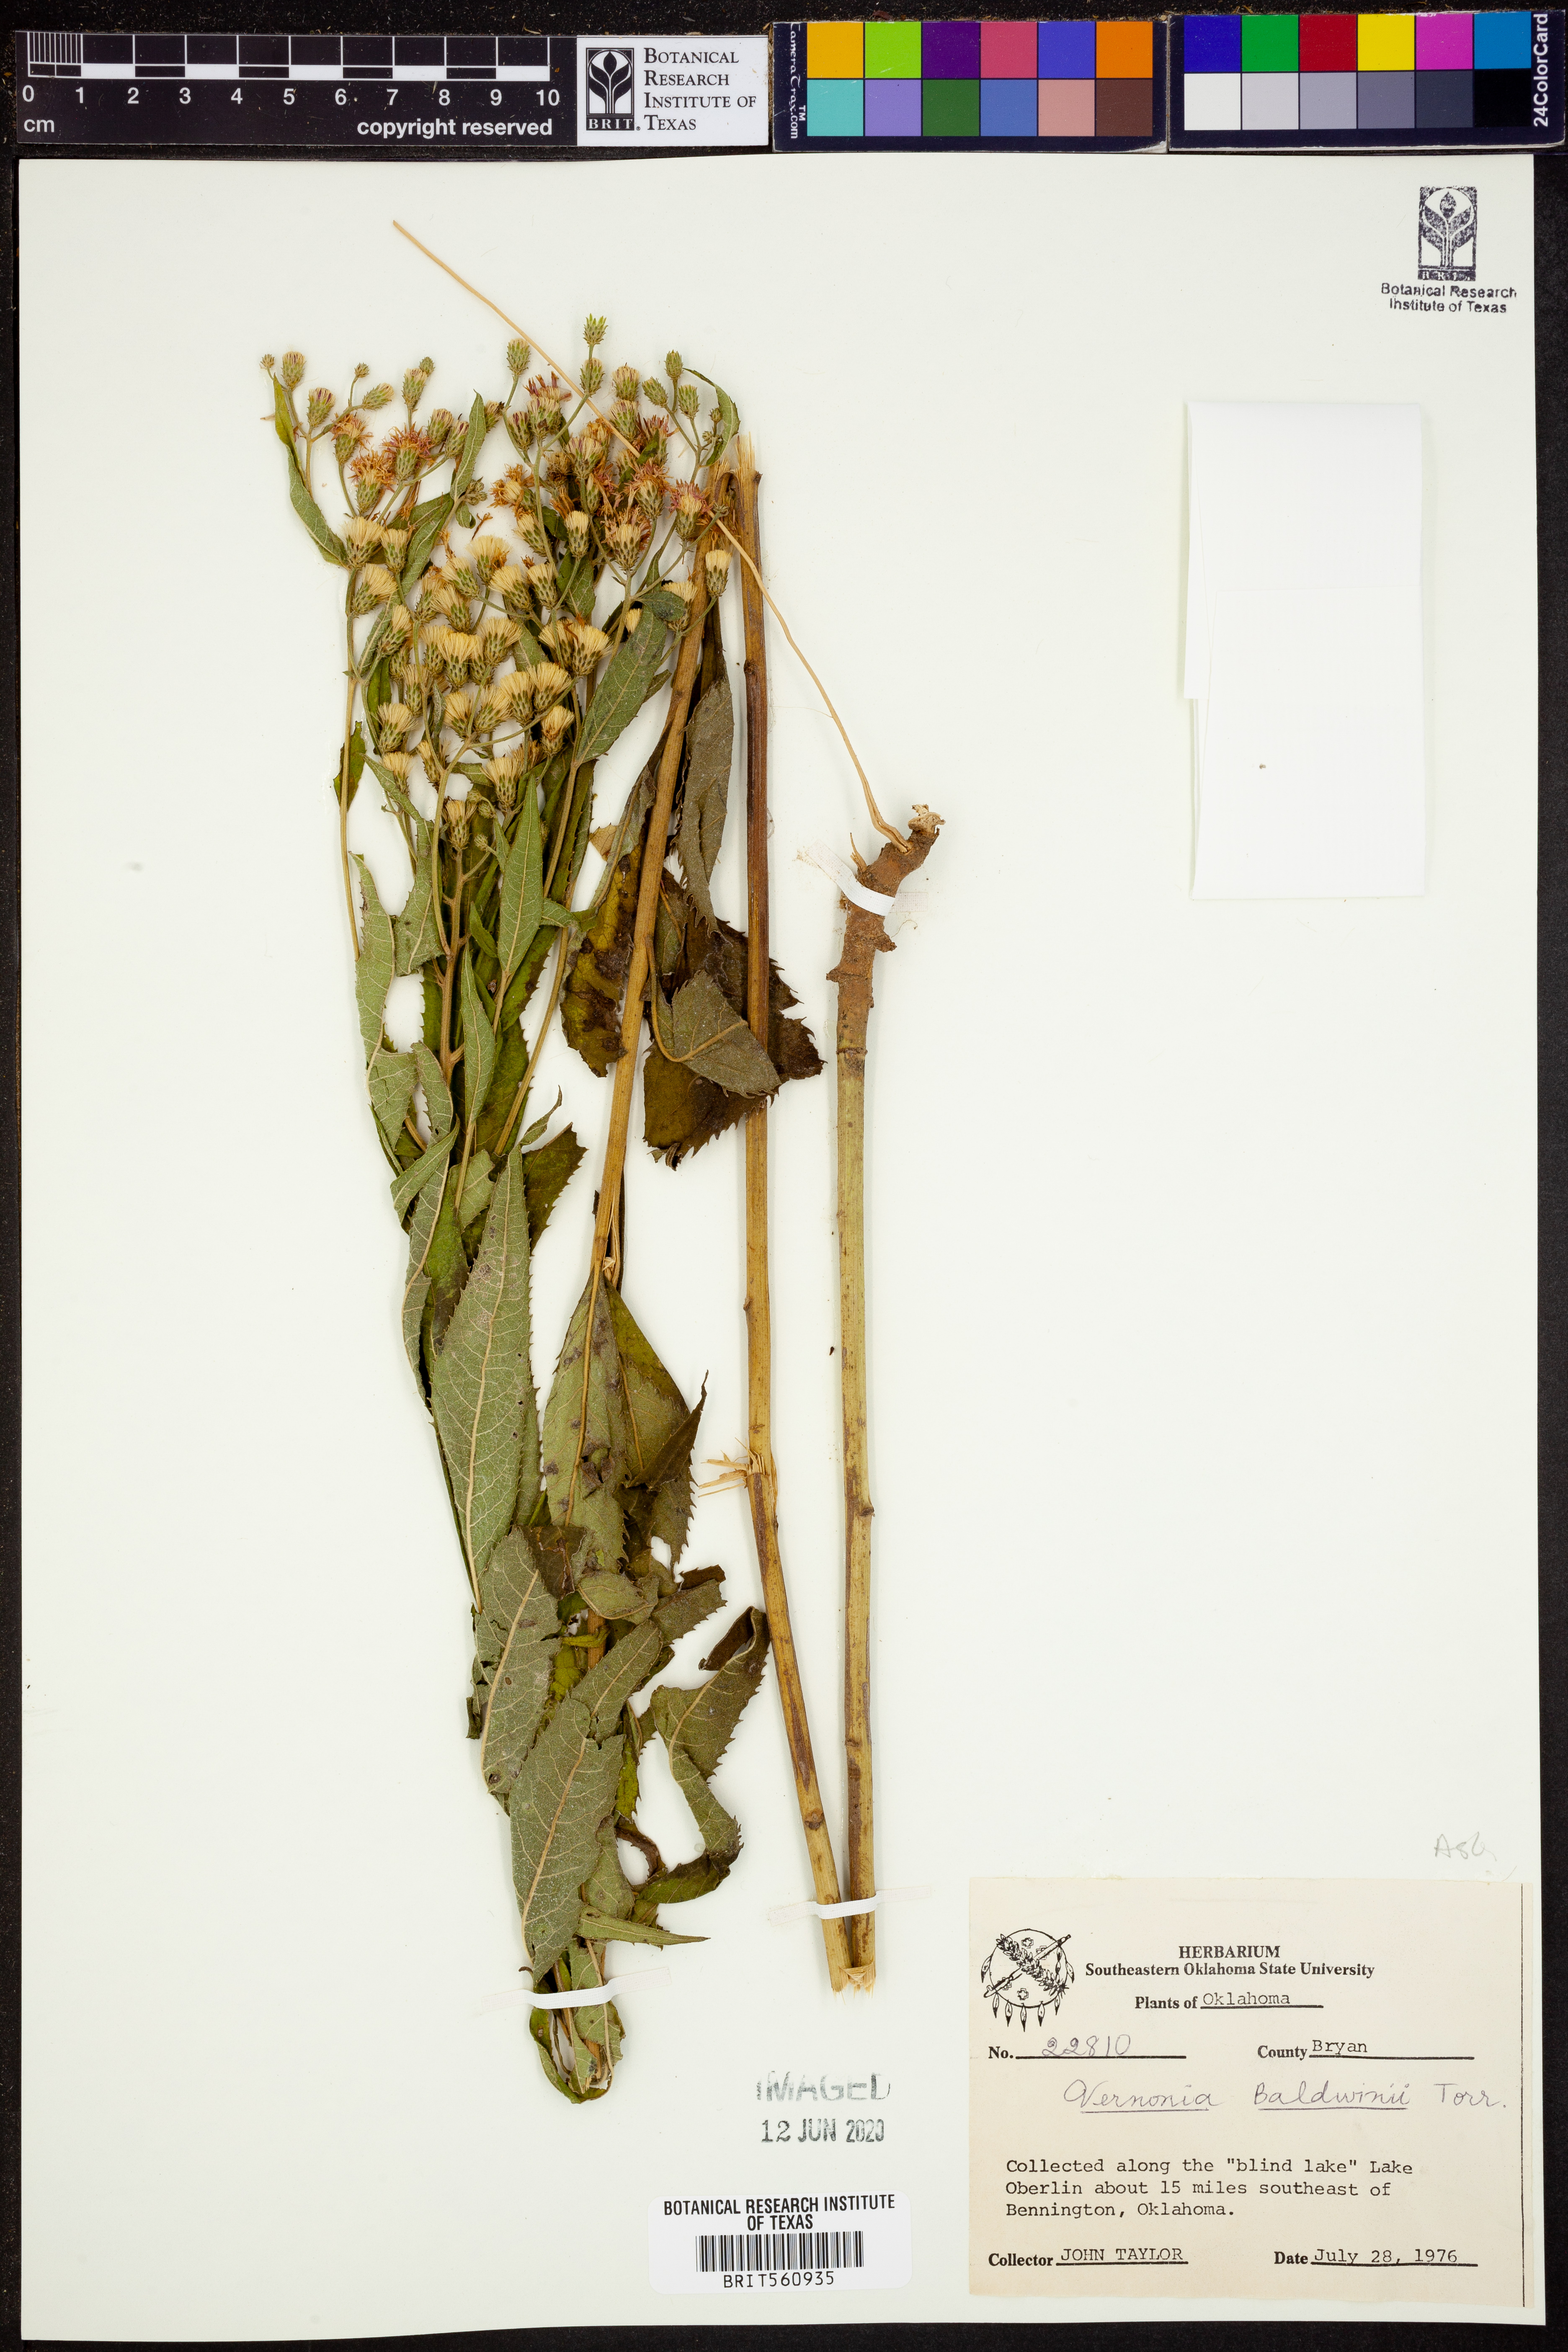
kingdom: Plantae
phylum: Tracheophyta
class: Magnoliopsida
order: Asterales
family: Asteraceae
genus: Vernonia
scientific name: Vernonia baldwinii
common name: Western ironweed
